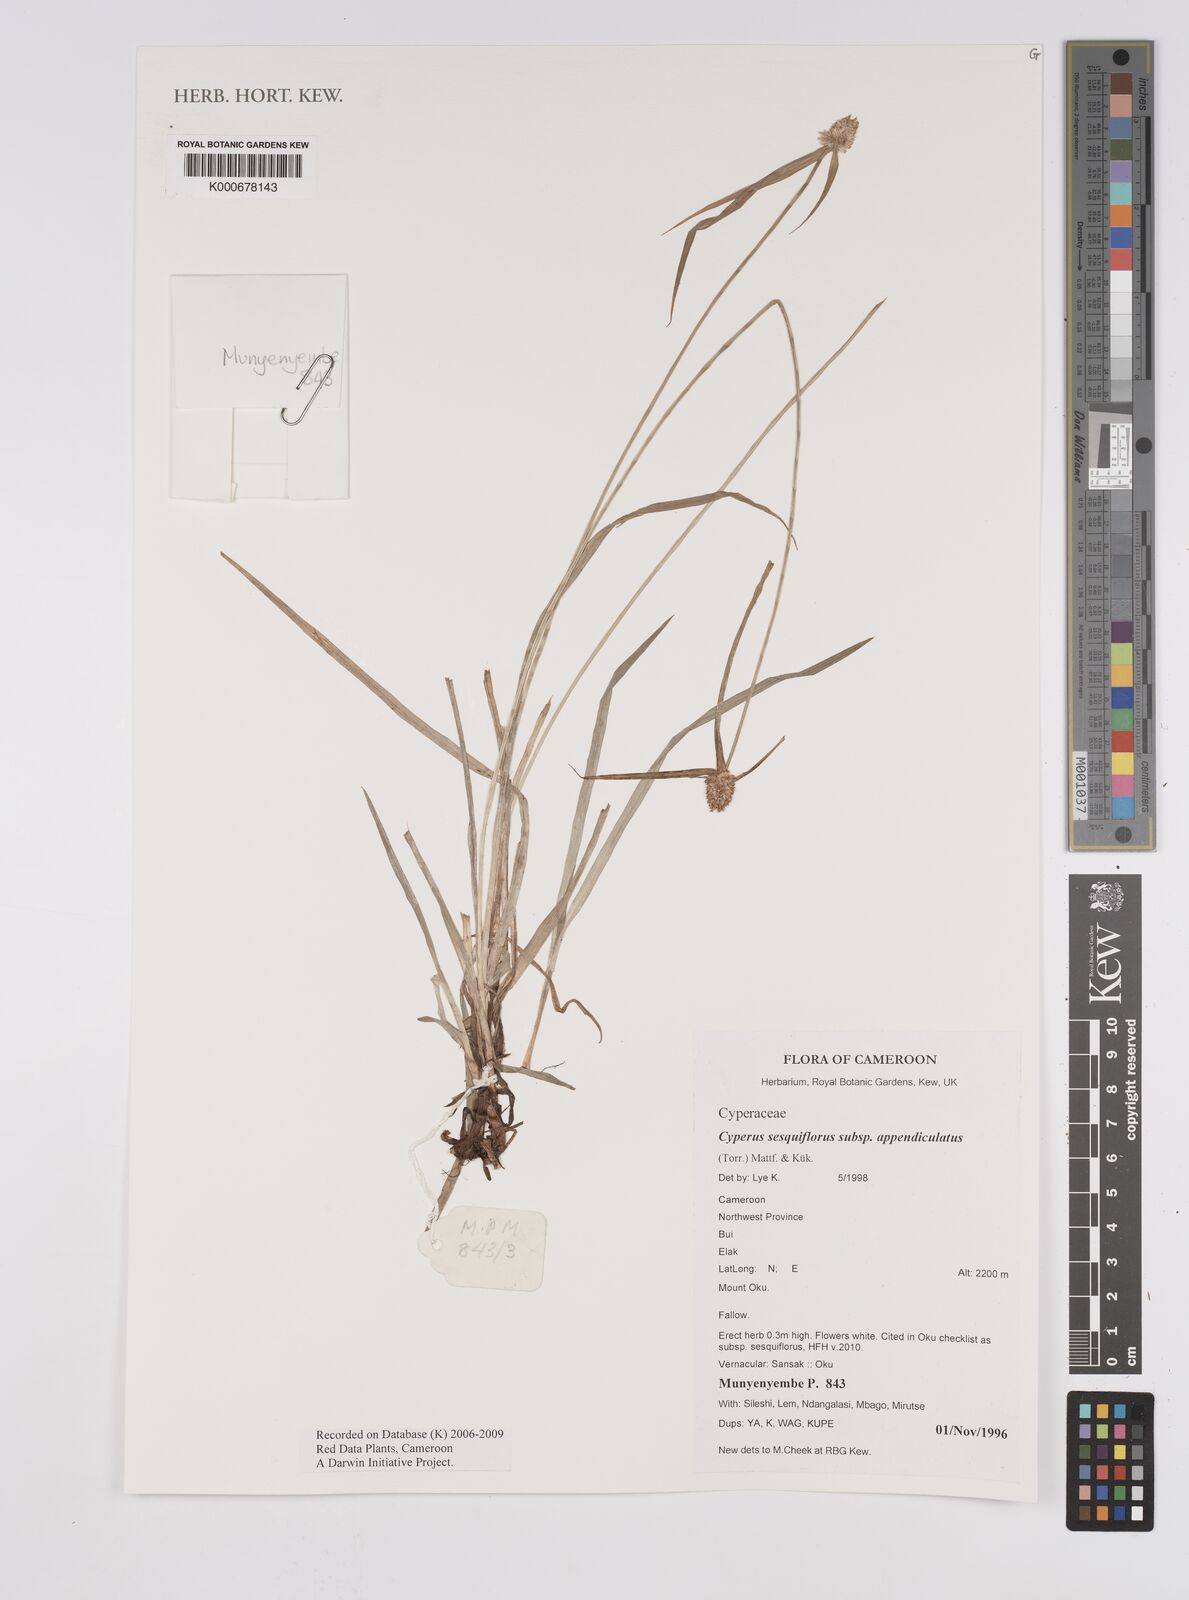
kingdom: Plantae
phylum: Tracheophyta
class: Liliopsida
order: Poales
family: Cyperaceae
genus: Cyperus
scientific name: Cyperus sesquiflorus
